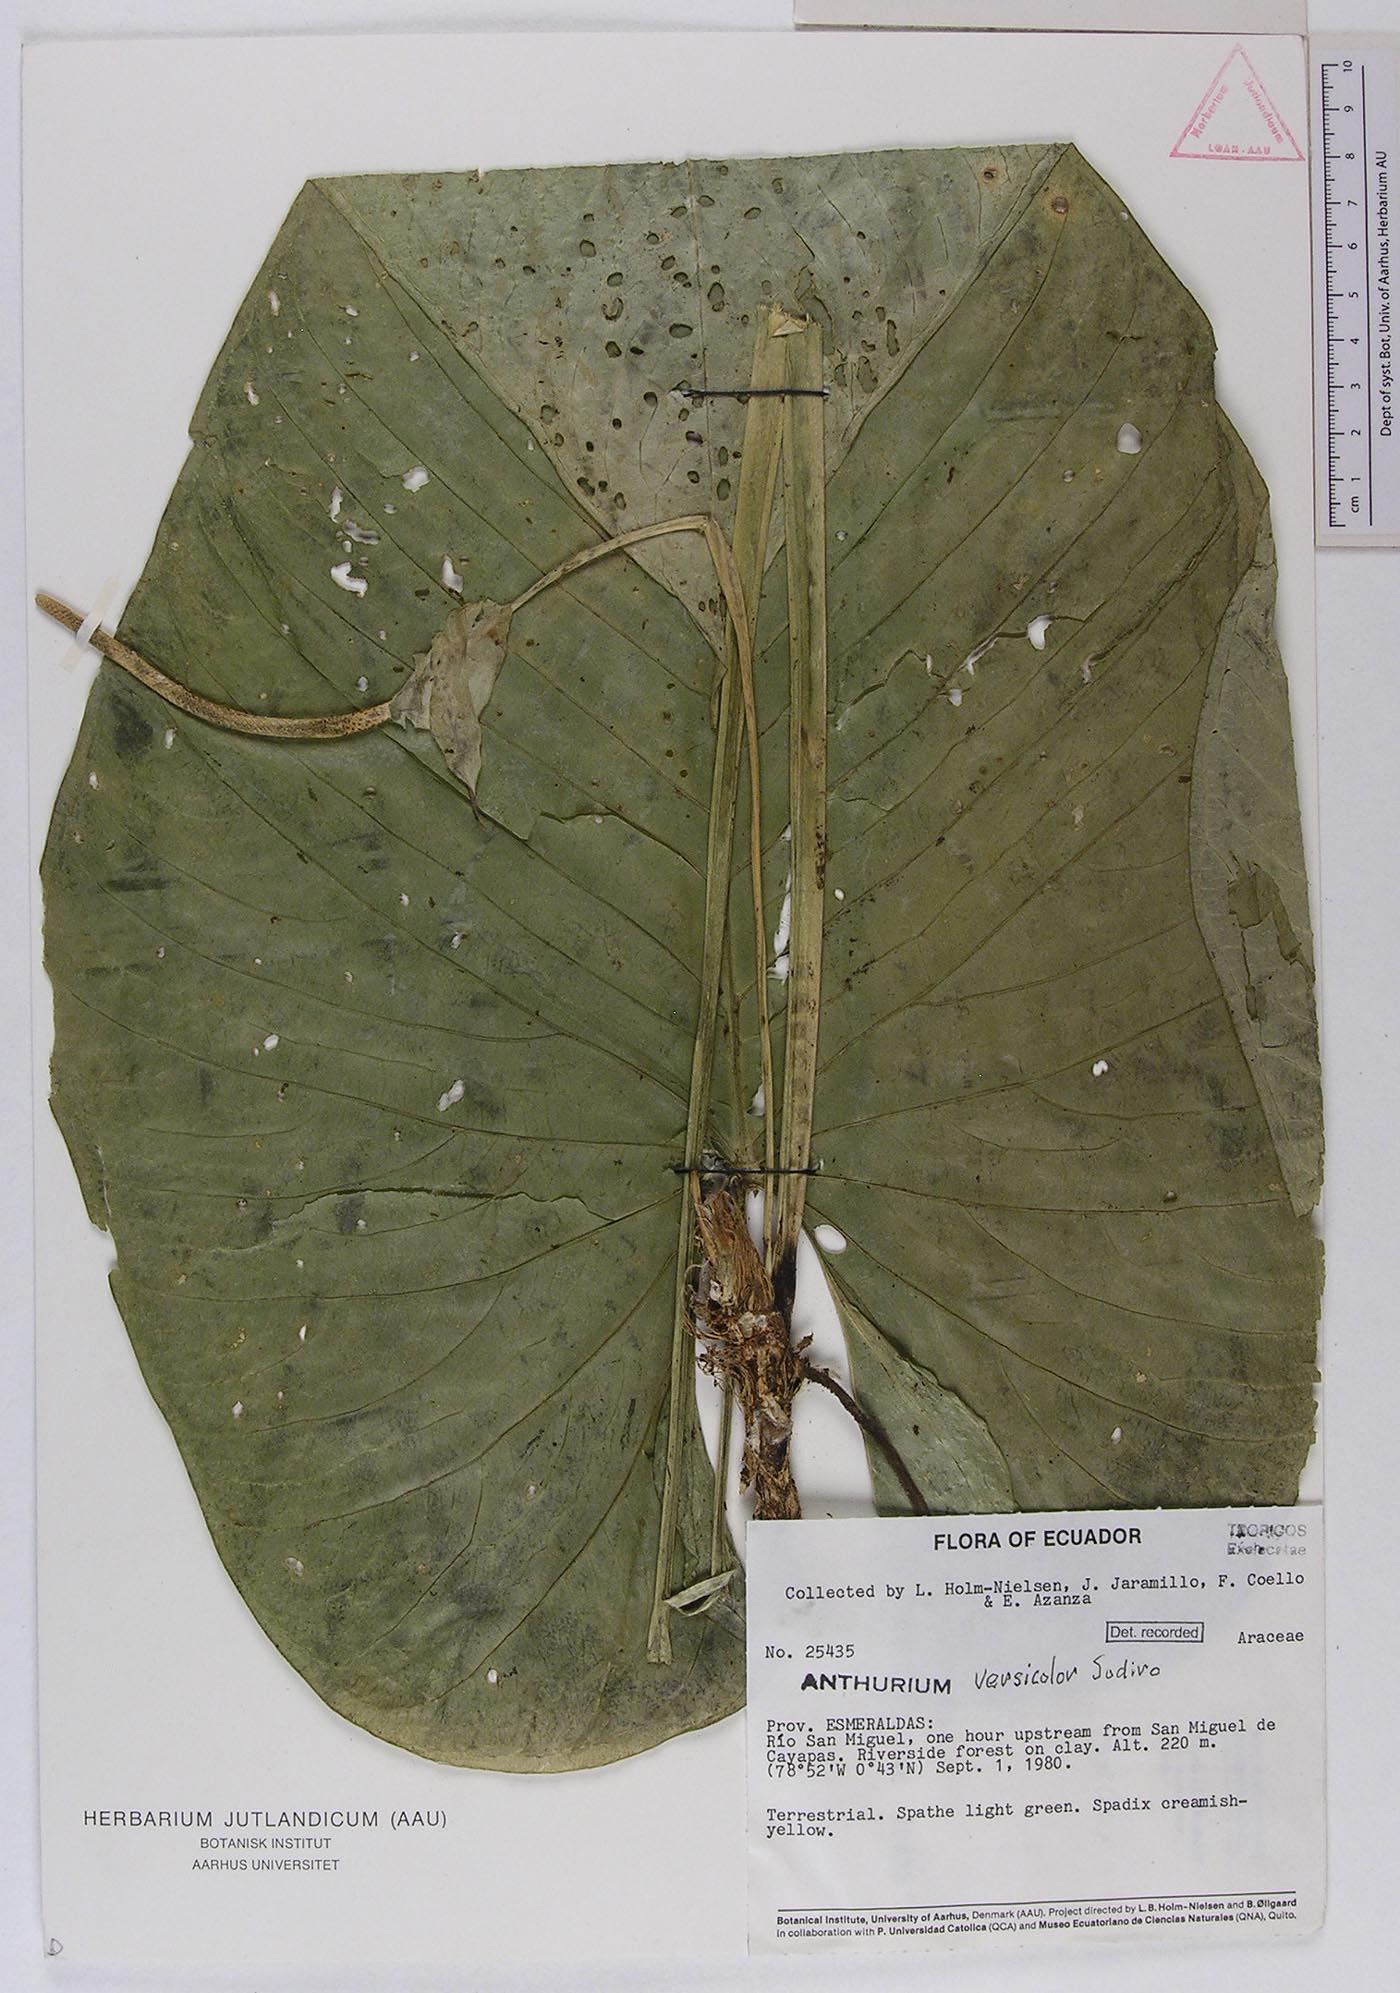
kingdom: Plantae
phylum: Tracheophyta
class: Liliopsida
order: Alismatales
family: Araceae
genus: Anthurium
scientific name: Anthurium versicolor
